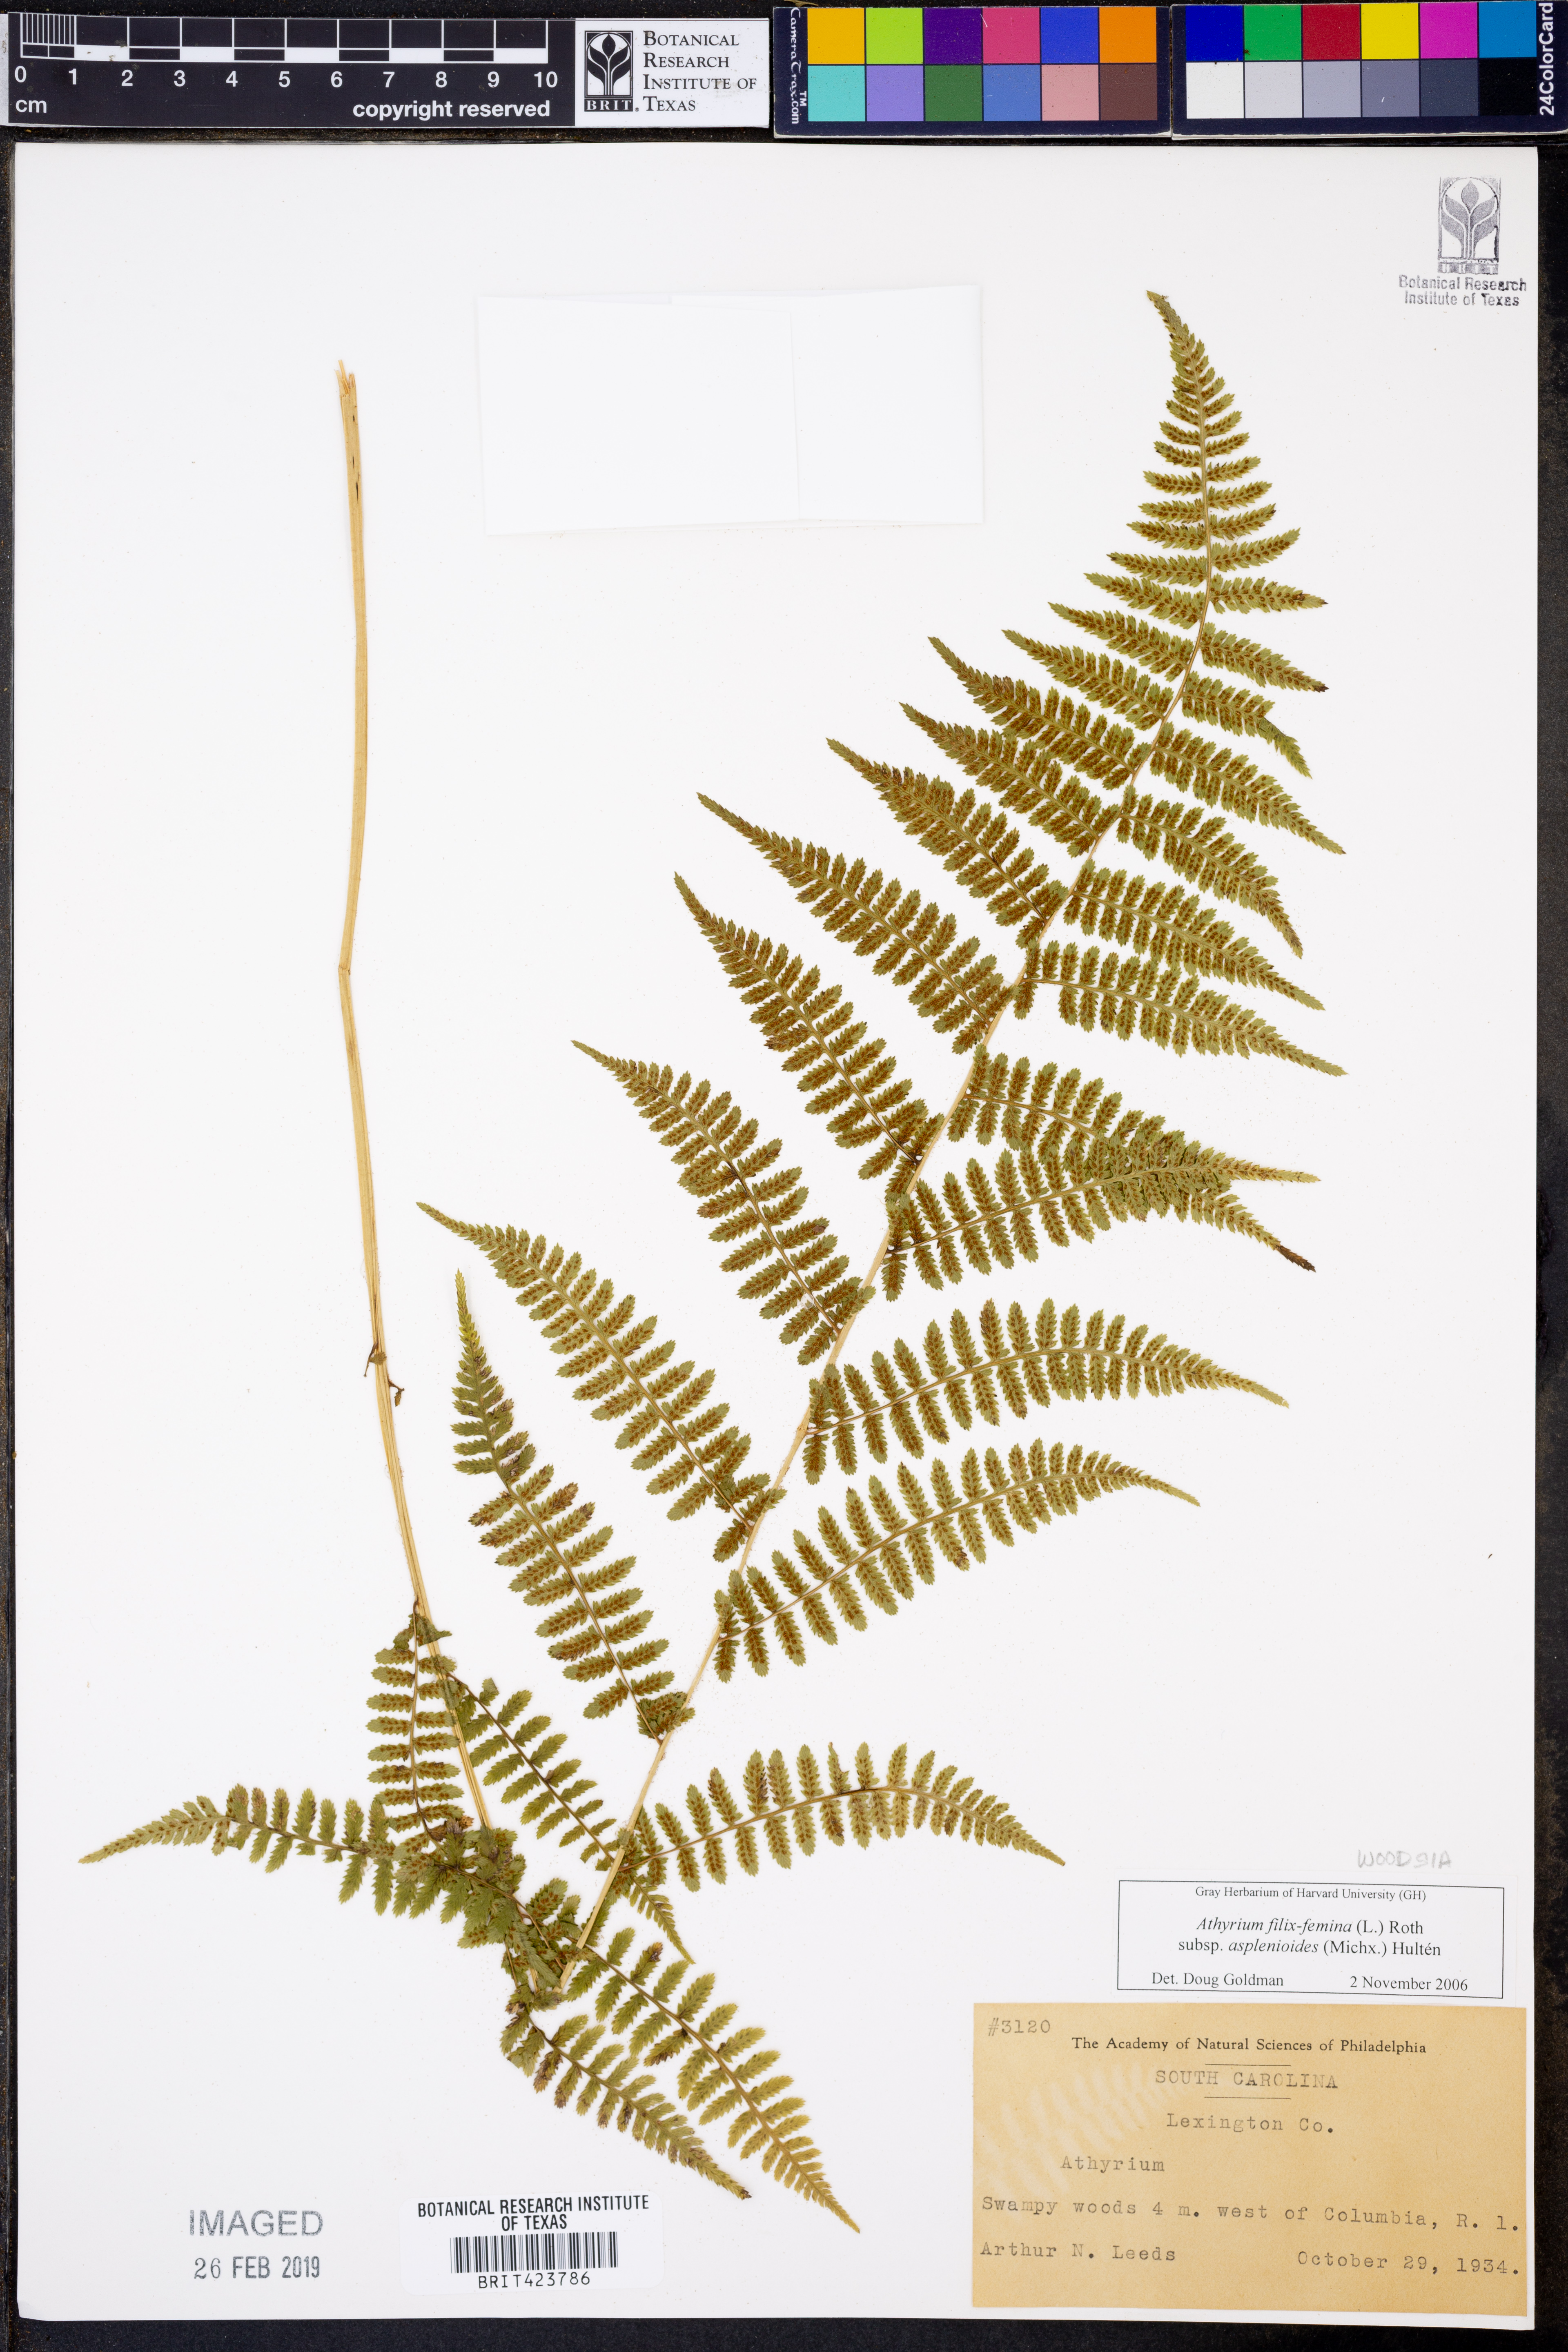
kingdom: Plantae
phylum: Tracheophyta
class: Polypodiopsida
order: Polypodiales
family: Athyriaceae
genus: Athyrium
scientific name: Athyrium asplenioides
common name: Southern lady fern
